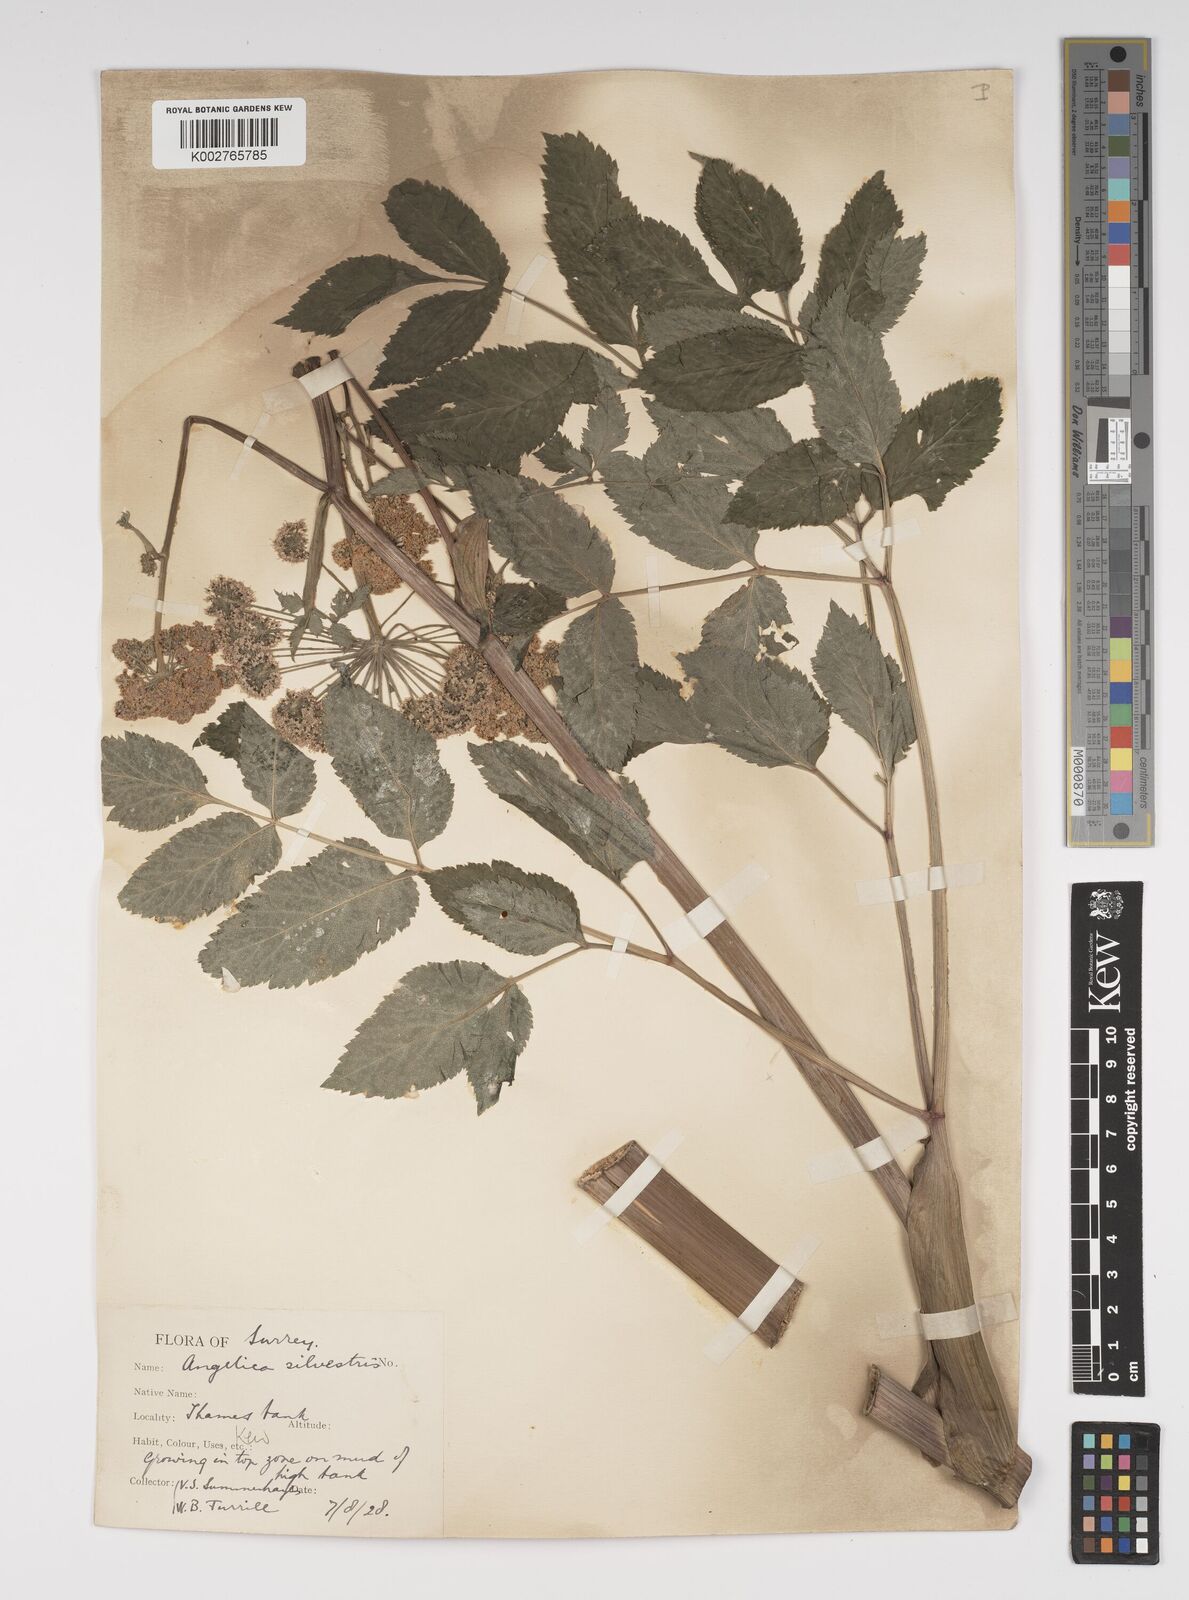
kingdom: Plantae
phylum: Tracheophyta
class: Magnoliopsida
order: Apiales
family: Apiaceae
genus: Angelica
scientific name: Angelica sylvestris
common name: Wild angelica
